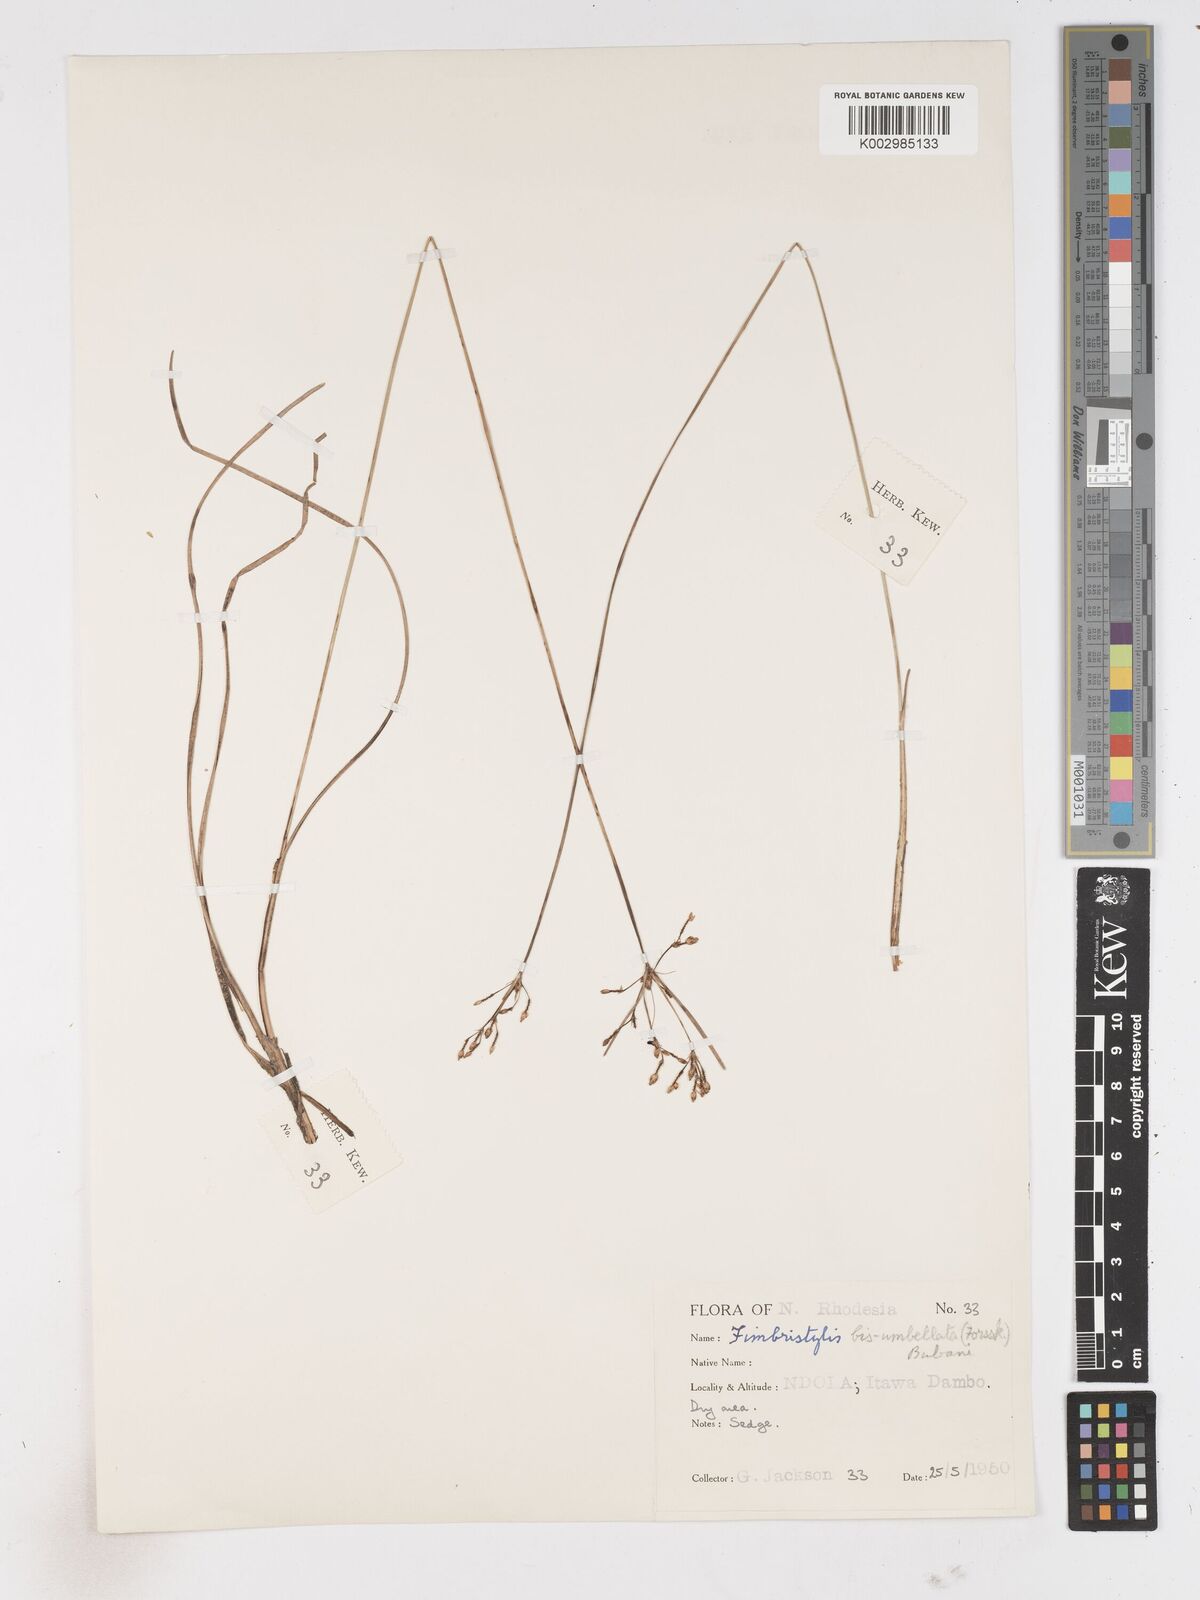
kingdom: Plantae
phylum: Tracheophyta
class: Liliopsida
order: Poales
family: Cyperaceae
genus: Fimbristylis
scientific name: Fimbristylis dichotoma
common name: Forked fimbry
